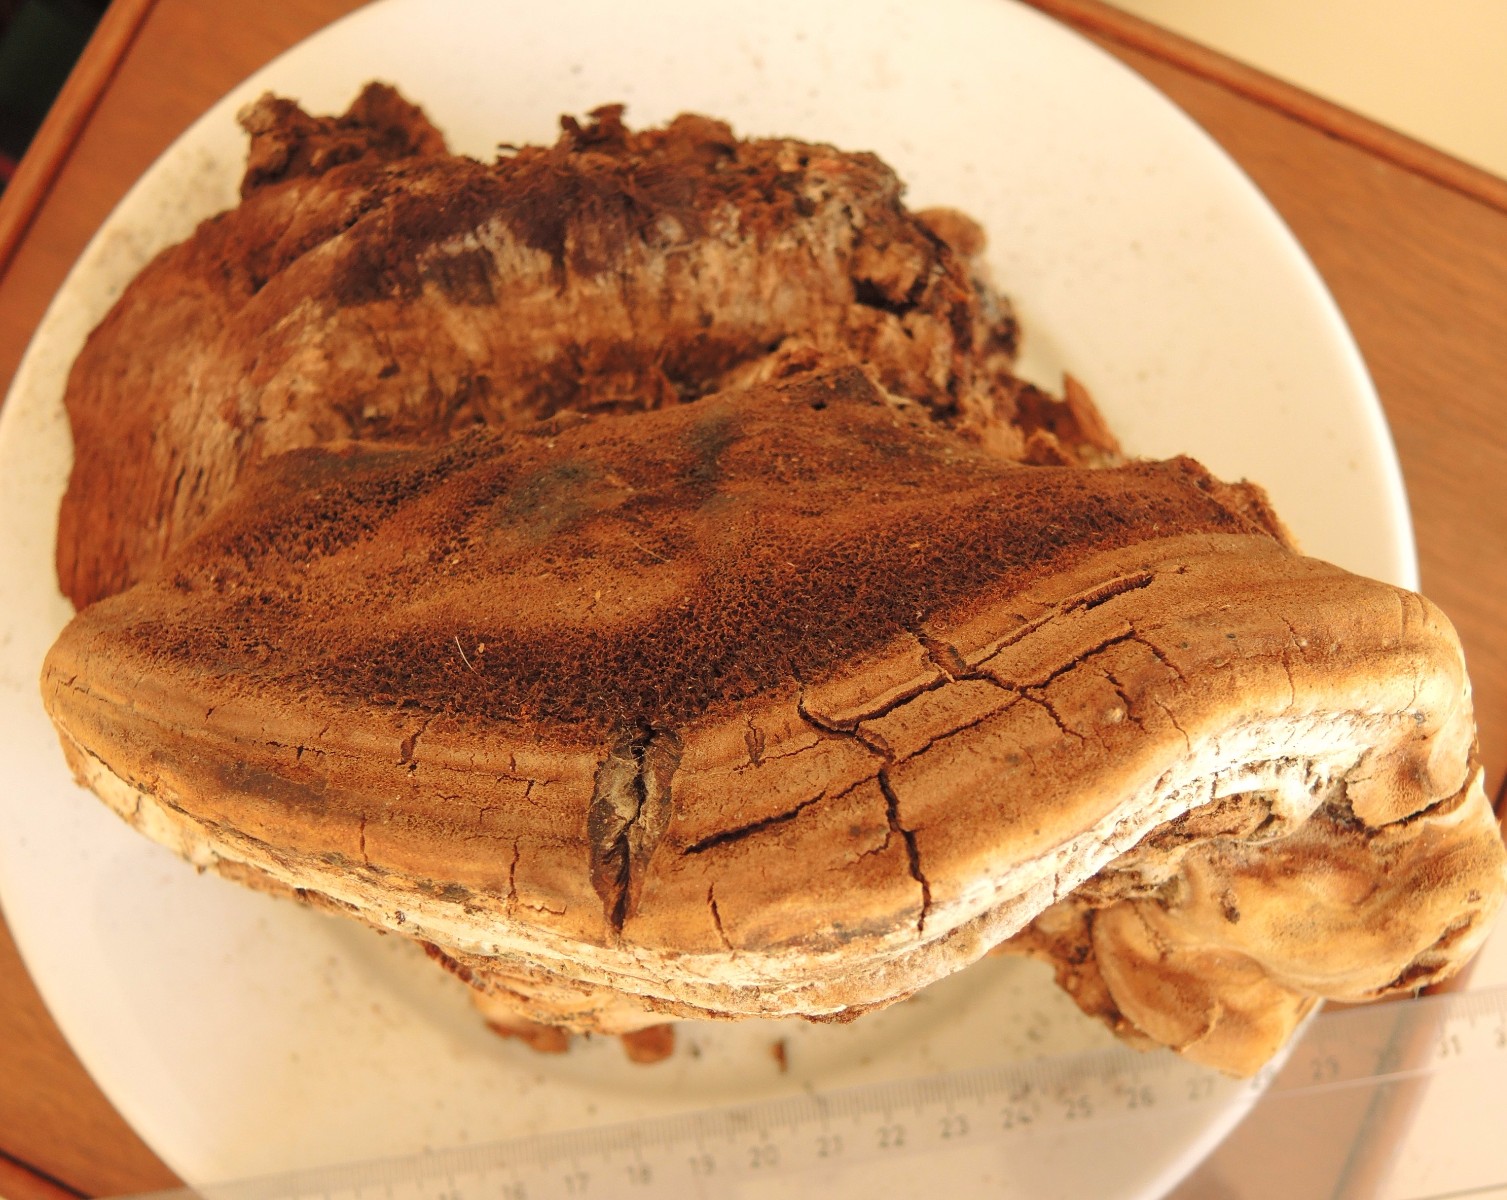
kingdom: Fungi
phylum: Basidiomycota
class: Agaricomycetes
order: Hymenochaetales
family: Hymenochaetaceae
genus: Inocutis
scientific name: Inocutis tamaricis
